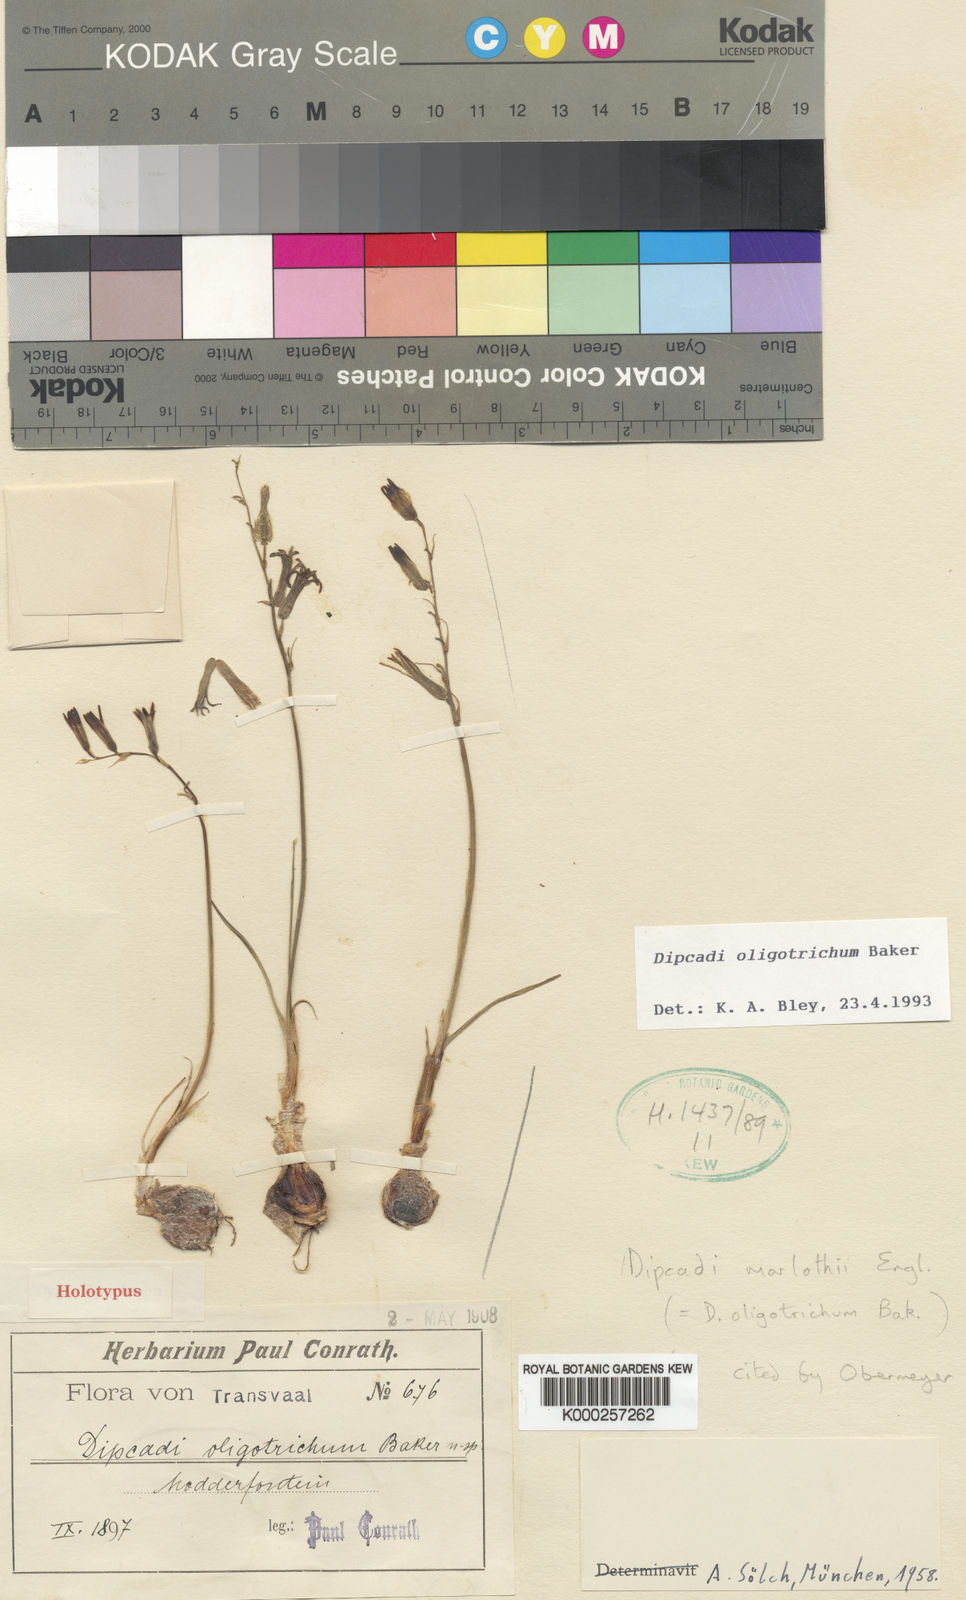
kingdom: Plantae
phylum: Tracheophyta
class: Liliopsida
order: Asparagales
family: Asparagaceae
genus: Dipcadi
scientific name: Dipcadi marlothii
